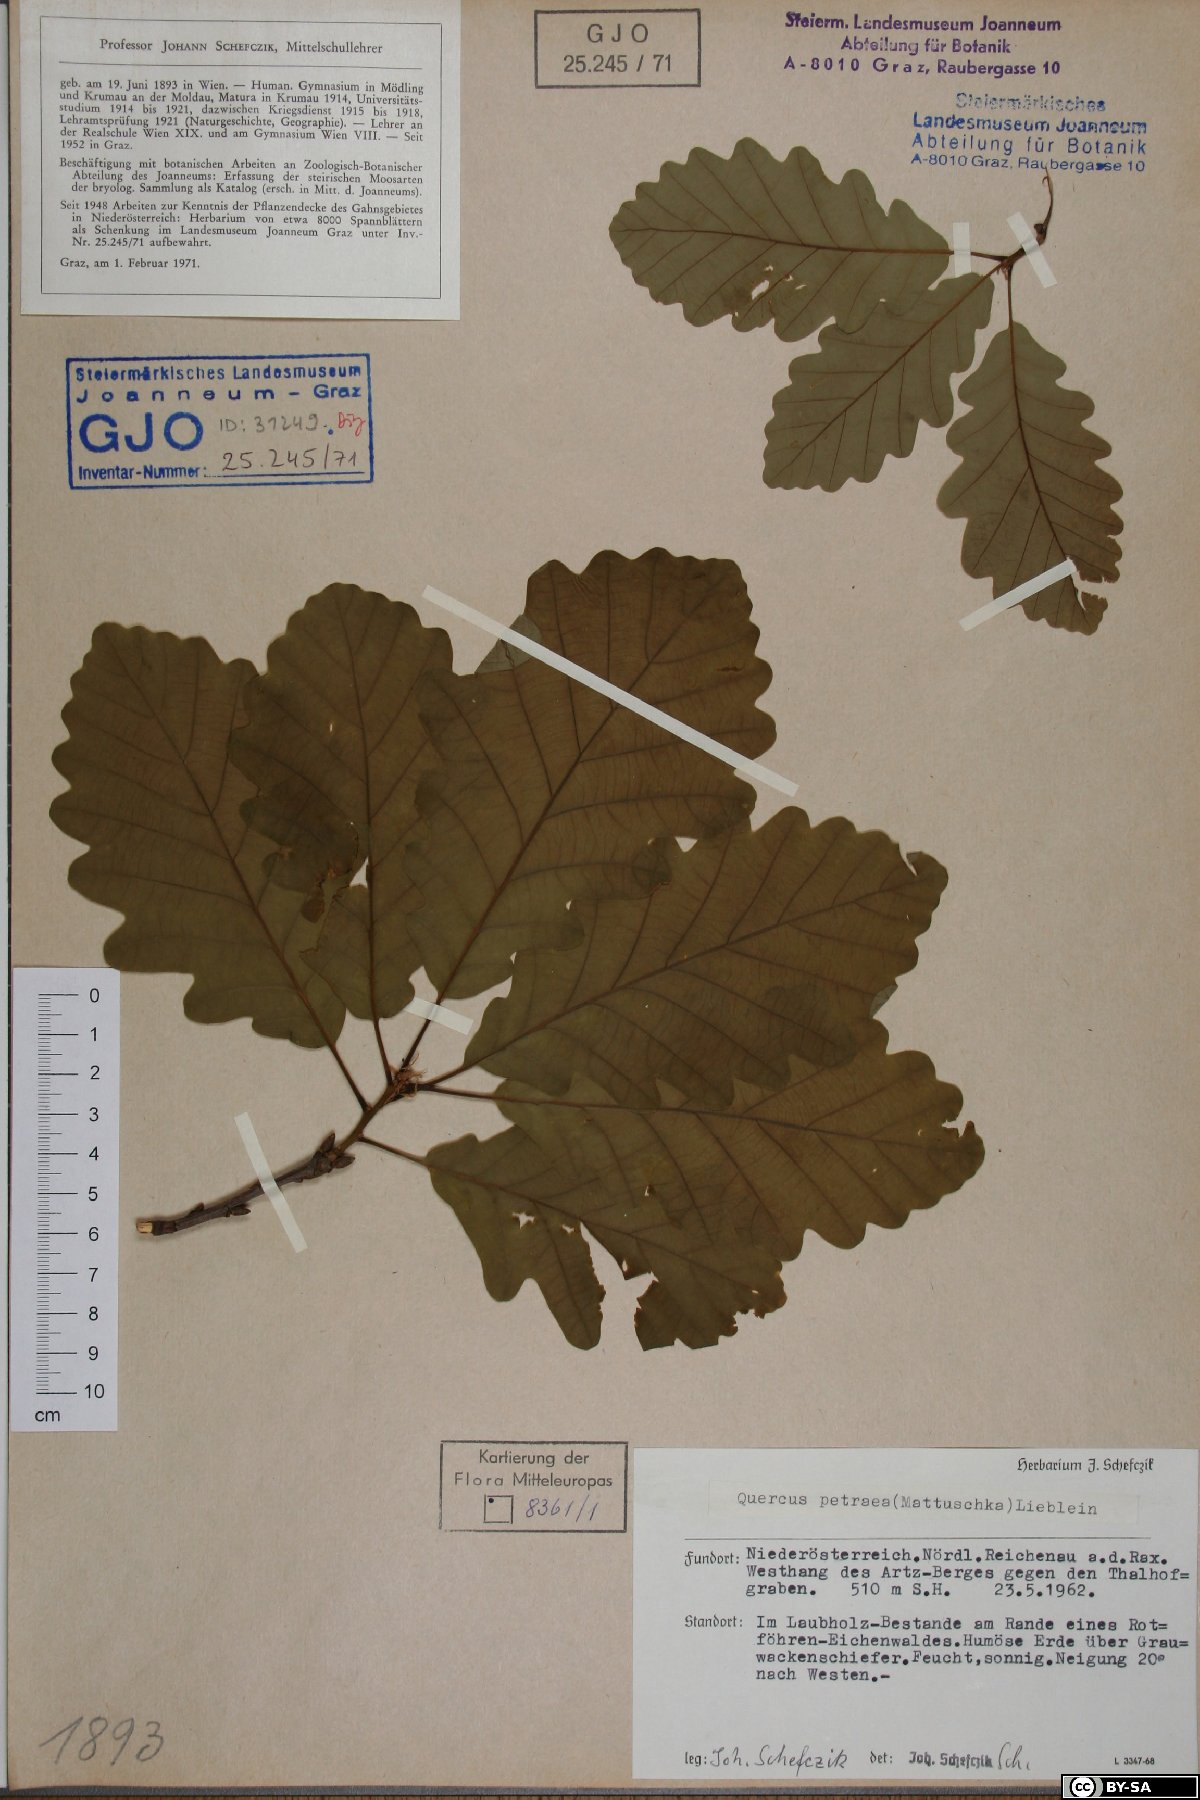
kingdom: Plantae
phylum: Tracheophyta
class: Magnoliopsida
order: Fagales
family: Fagaceae
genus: Quercus
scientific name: Quercus petraea
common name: Sessile oak
